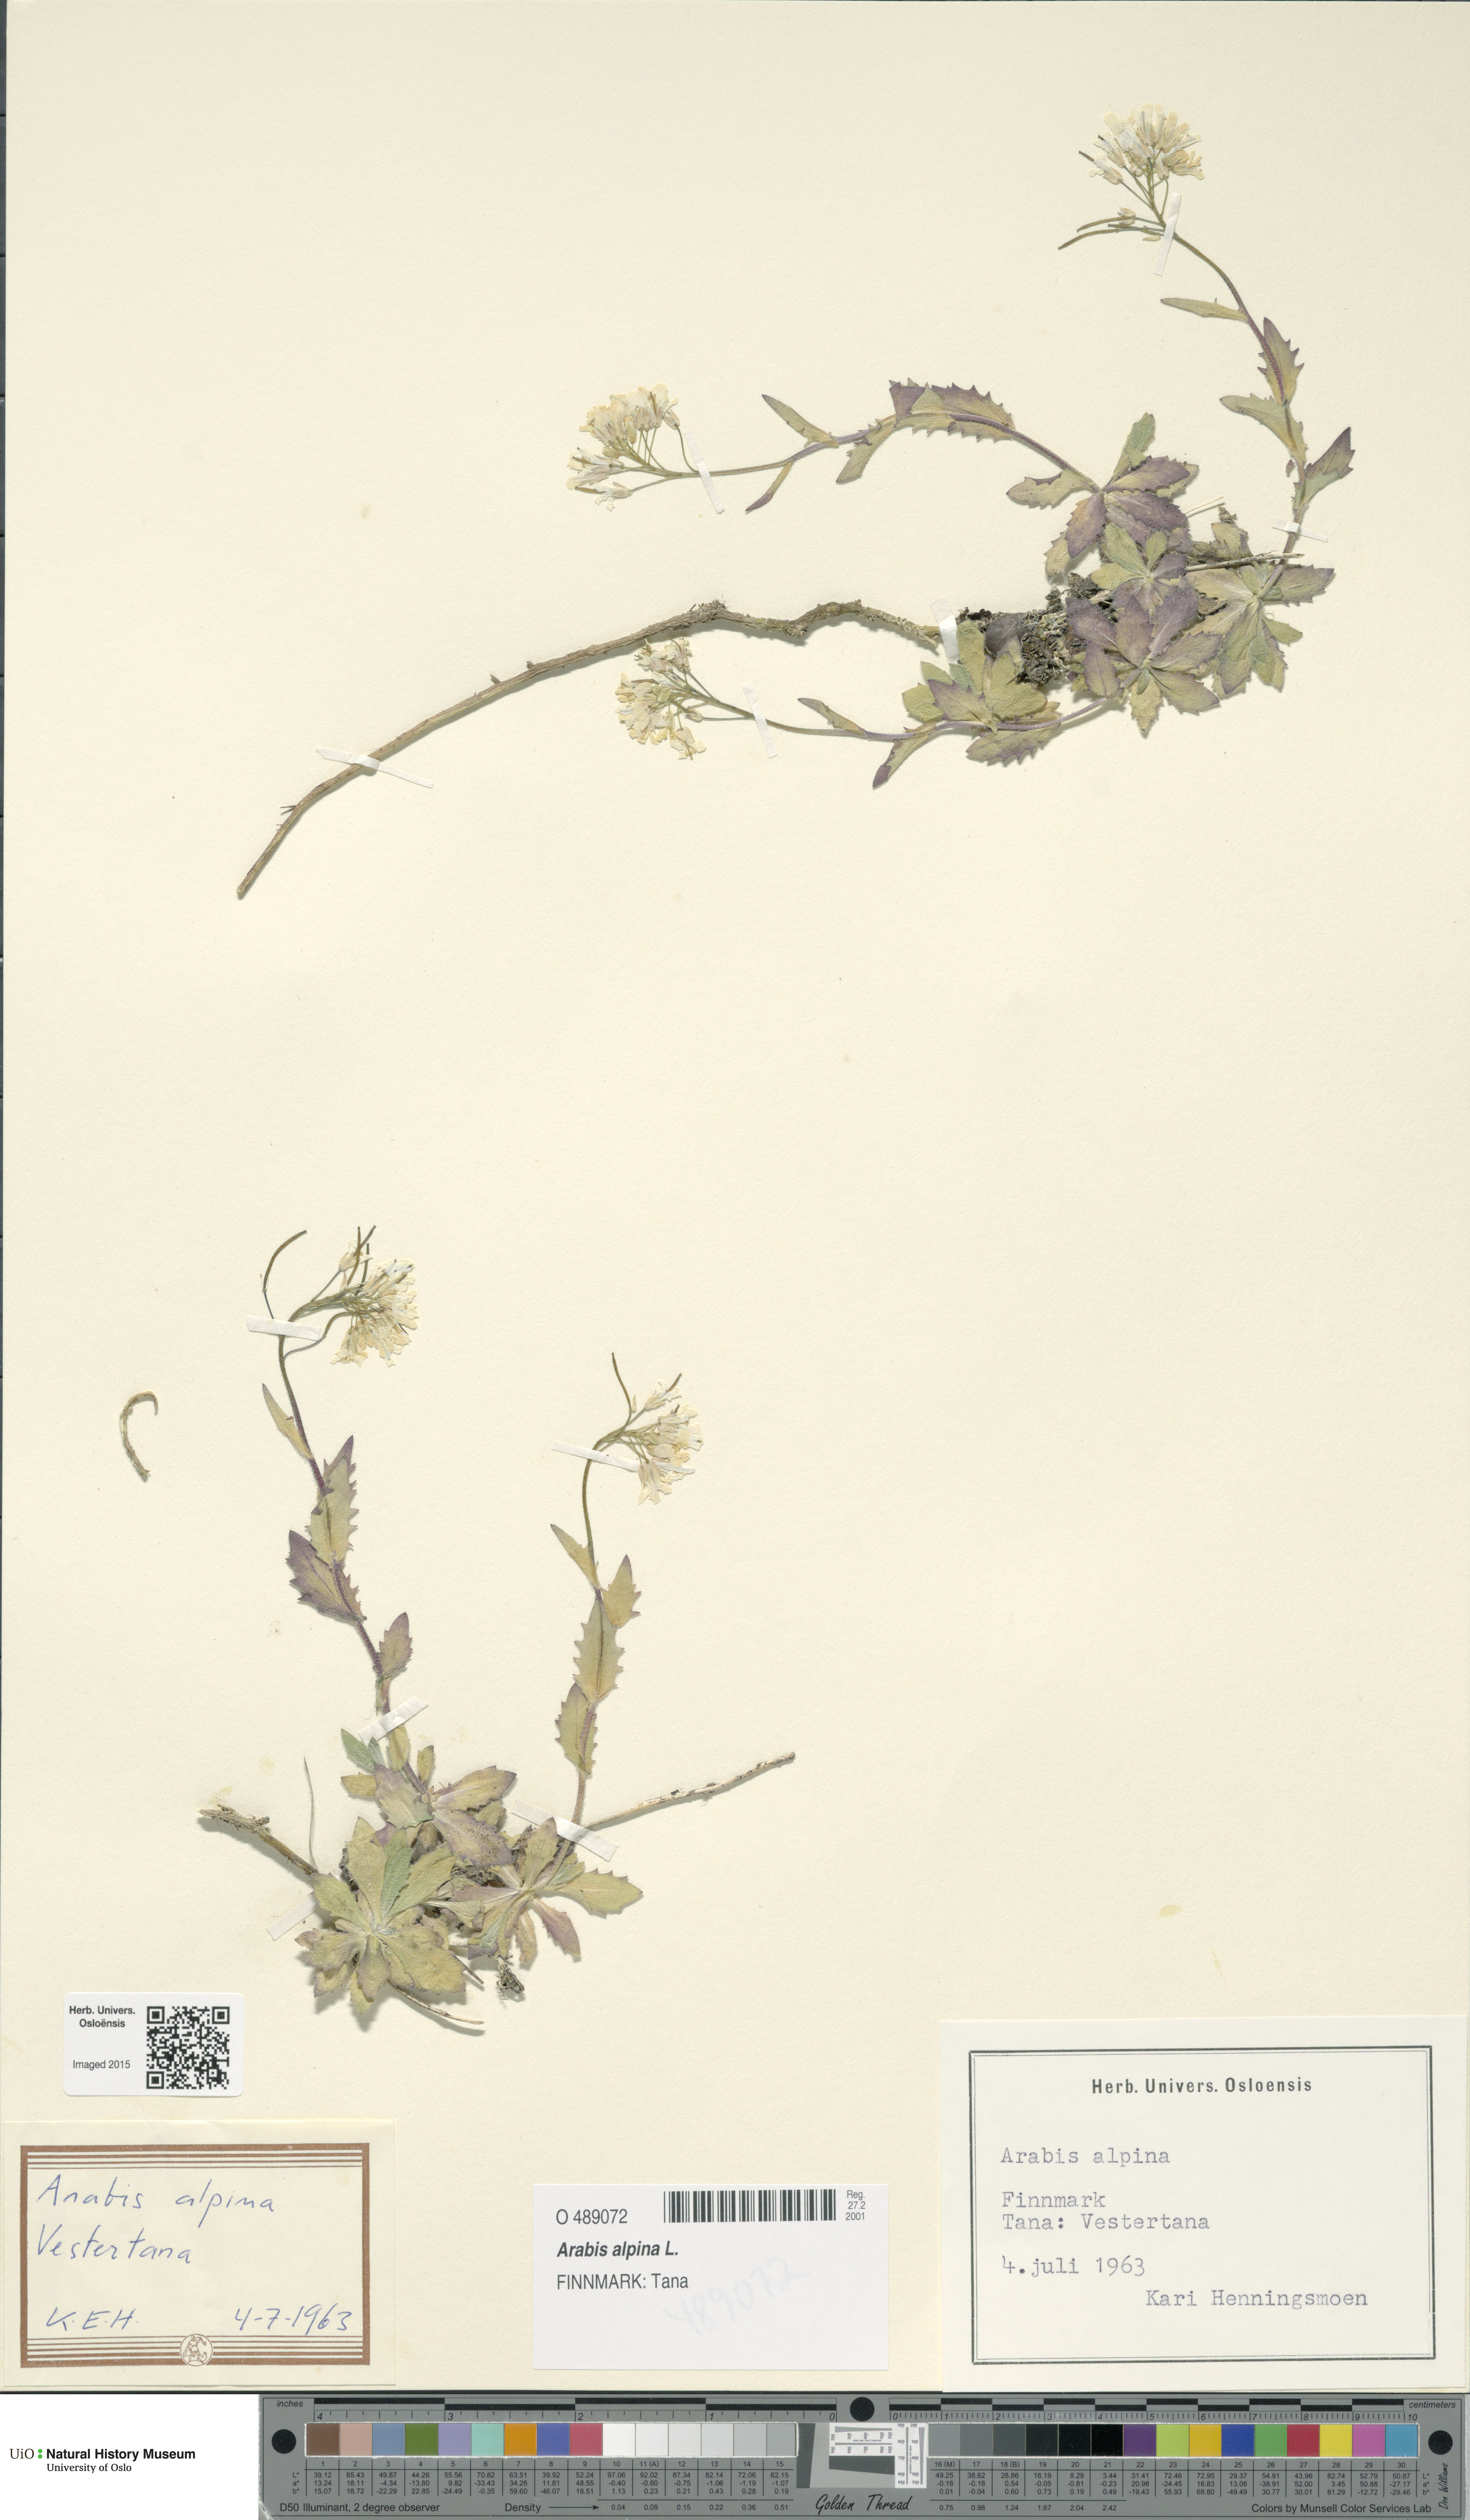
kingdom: Plantae
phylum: Tracheophyta
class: Magnoliopsida
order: Brassicales
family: Brassicaceae
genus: Arabis
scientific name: Arabis alpina
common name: Alpine rock-cress
